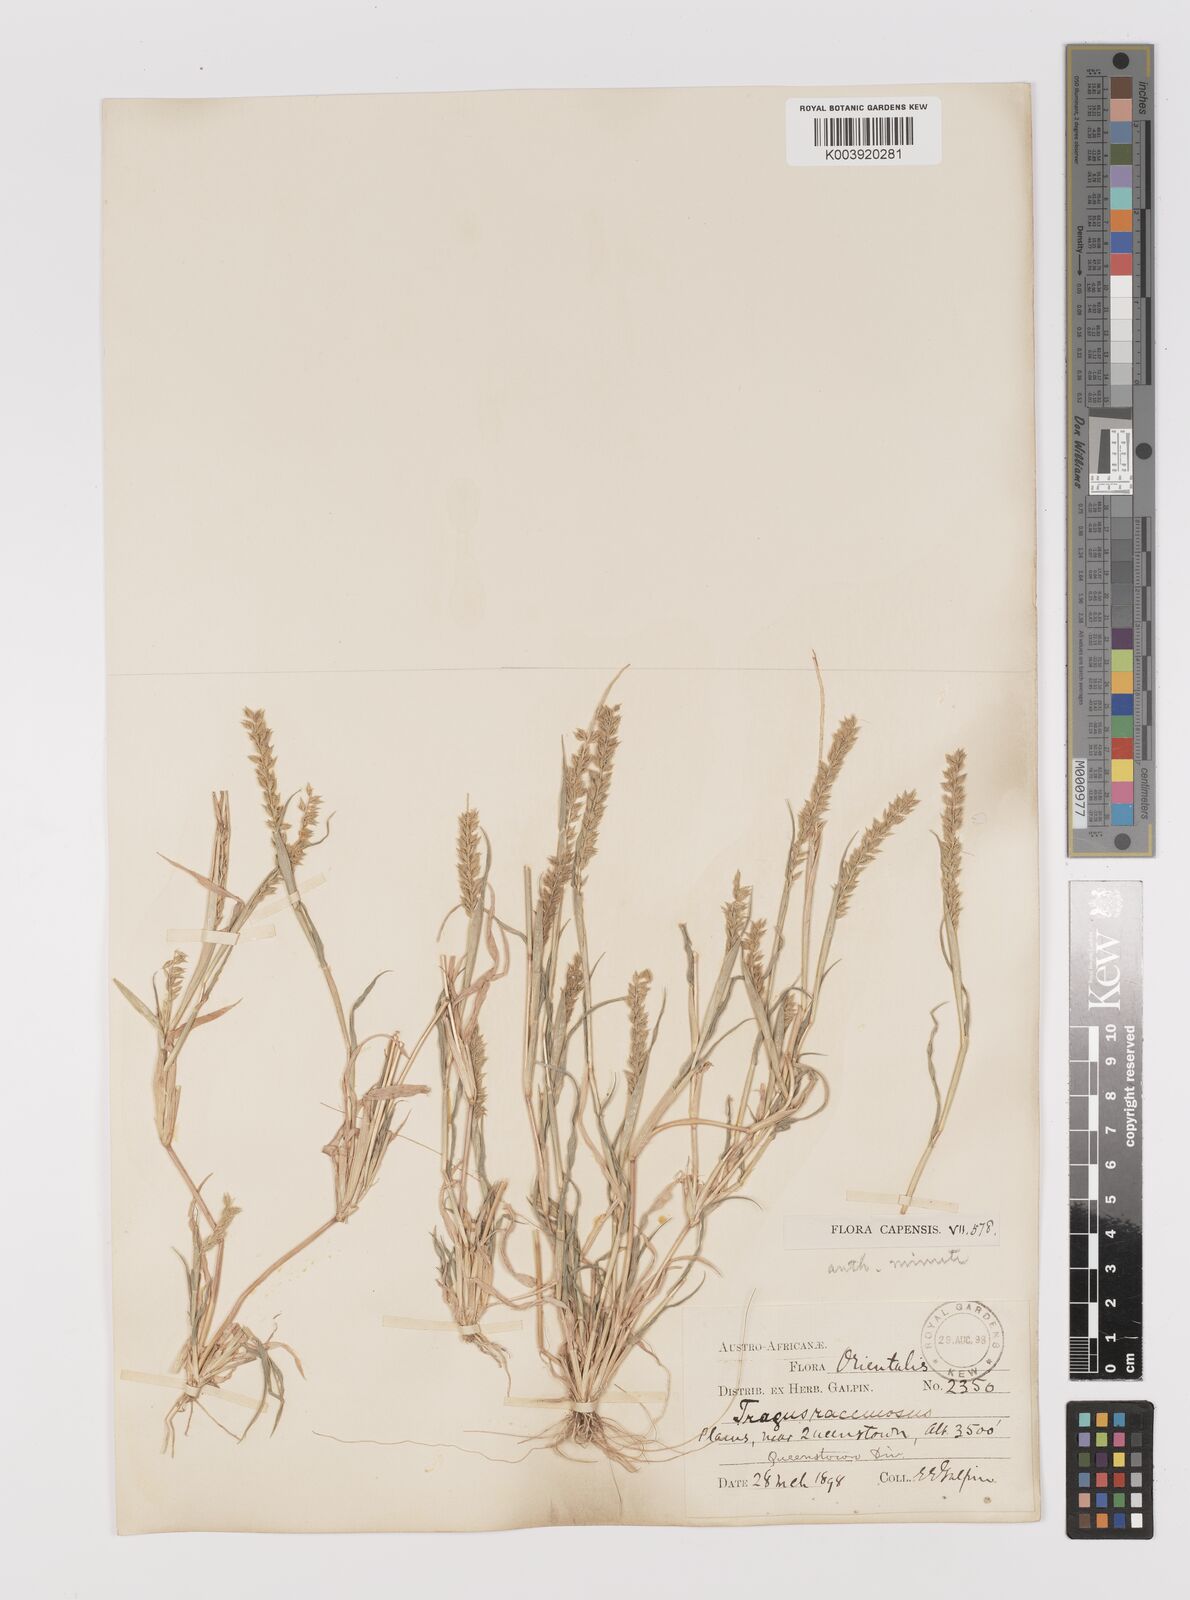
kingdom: Plantae
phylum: Tracheophyta
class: Liliopsida
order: Poales
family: Poaceae
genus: Tragus
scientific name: Tragus racemosus
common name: European bur-grass
